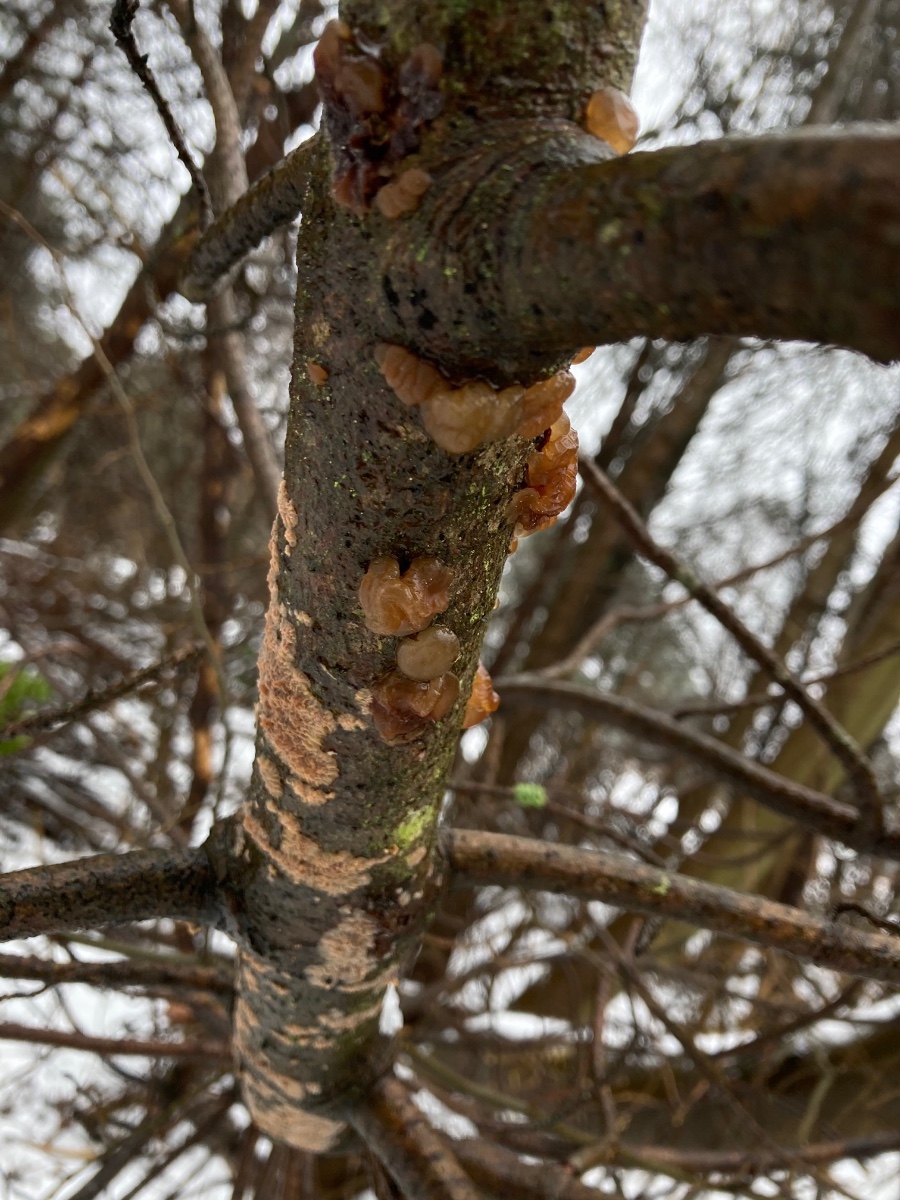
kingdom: Fungi
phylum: Basidiomycota
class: Agaricomycetes
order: Auriculariales
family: Auriculariaceae
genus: Exidia
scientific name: Exidia saccharina
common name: kandis-bævretop
